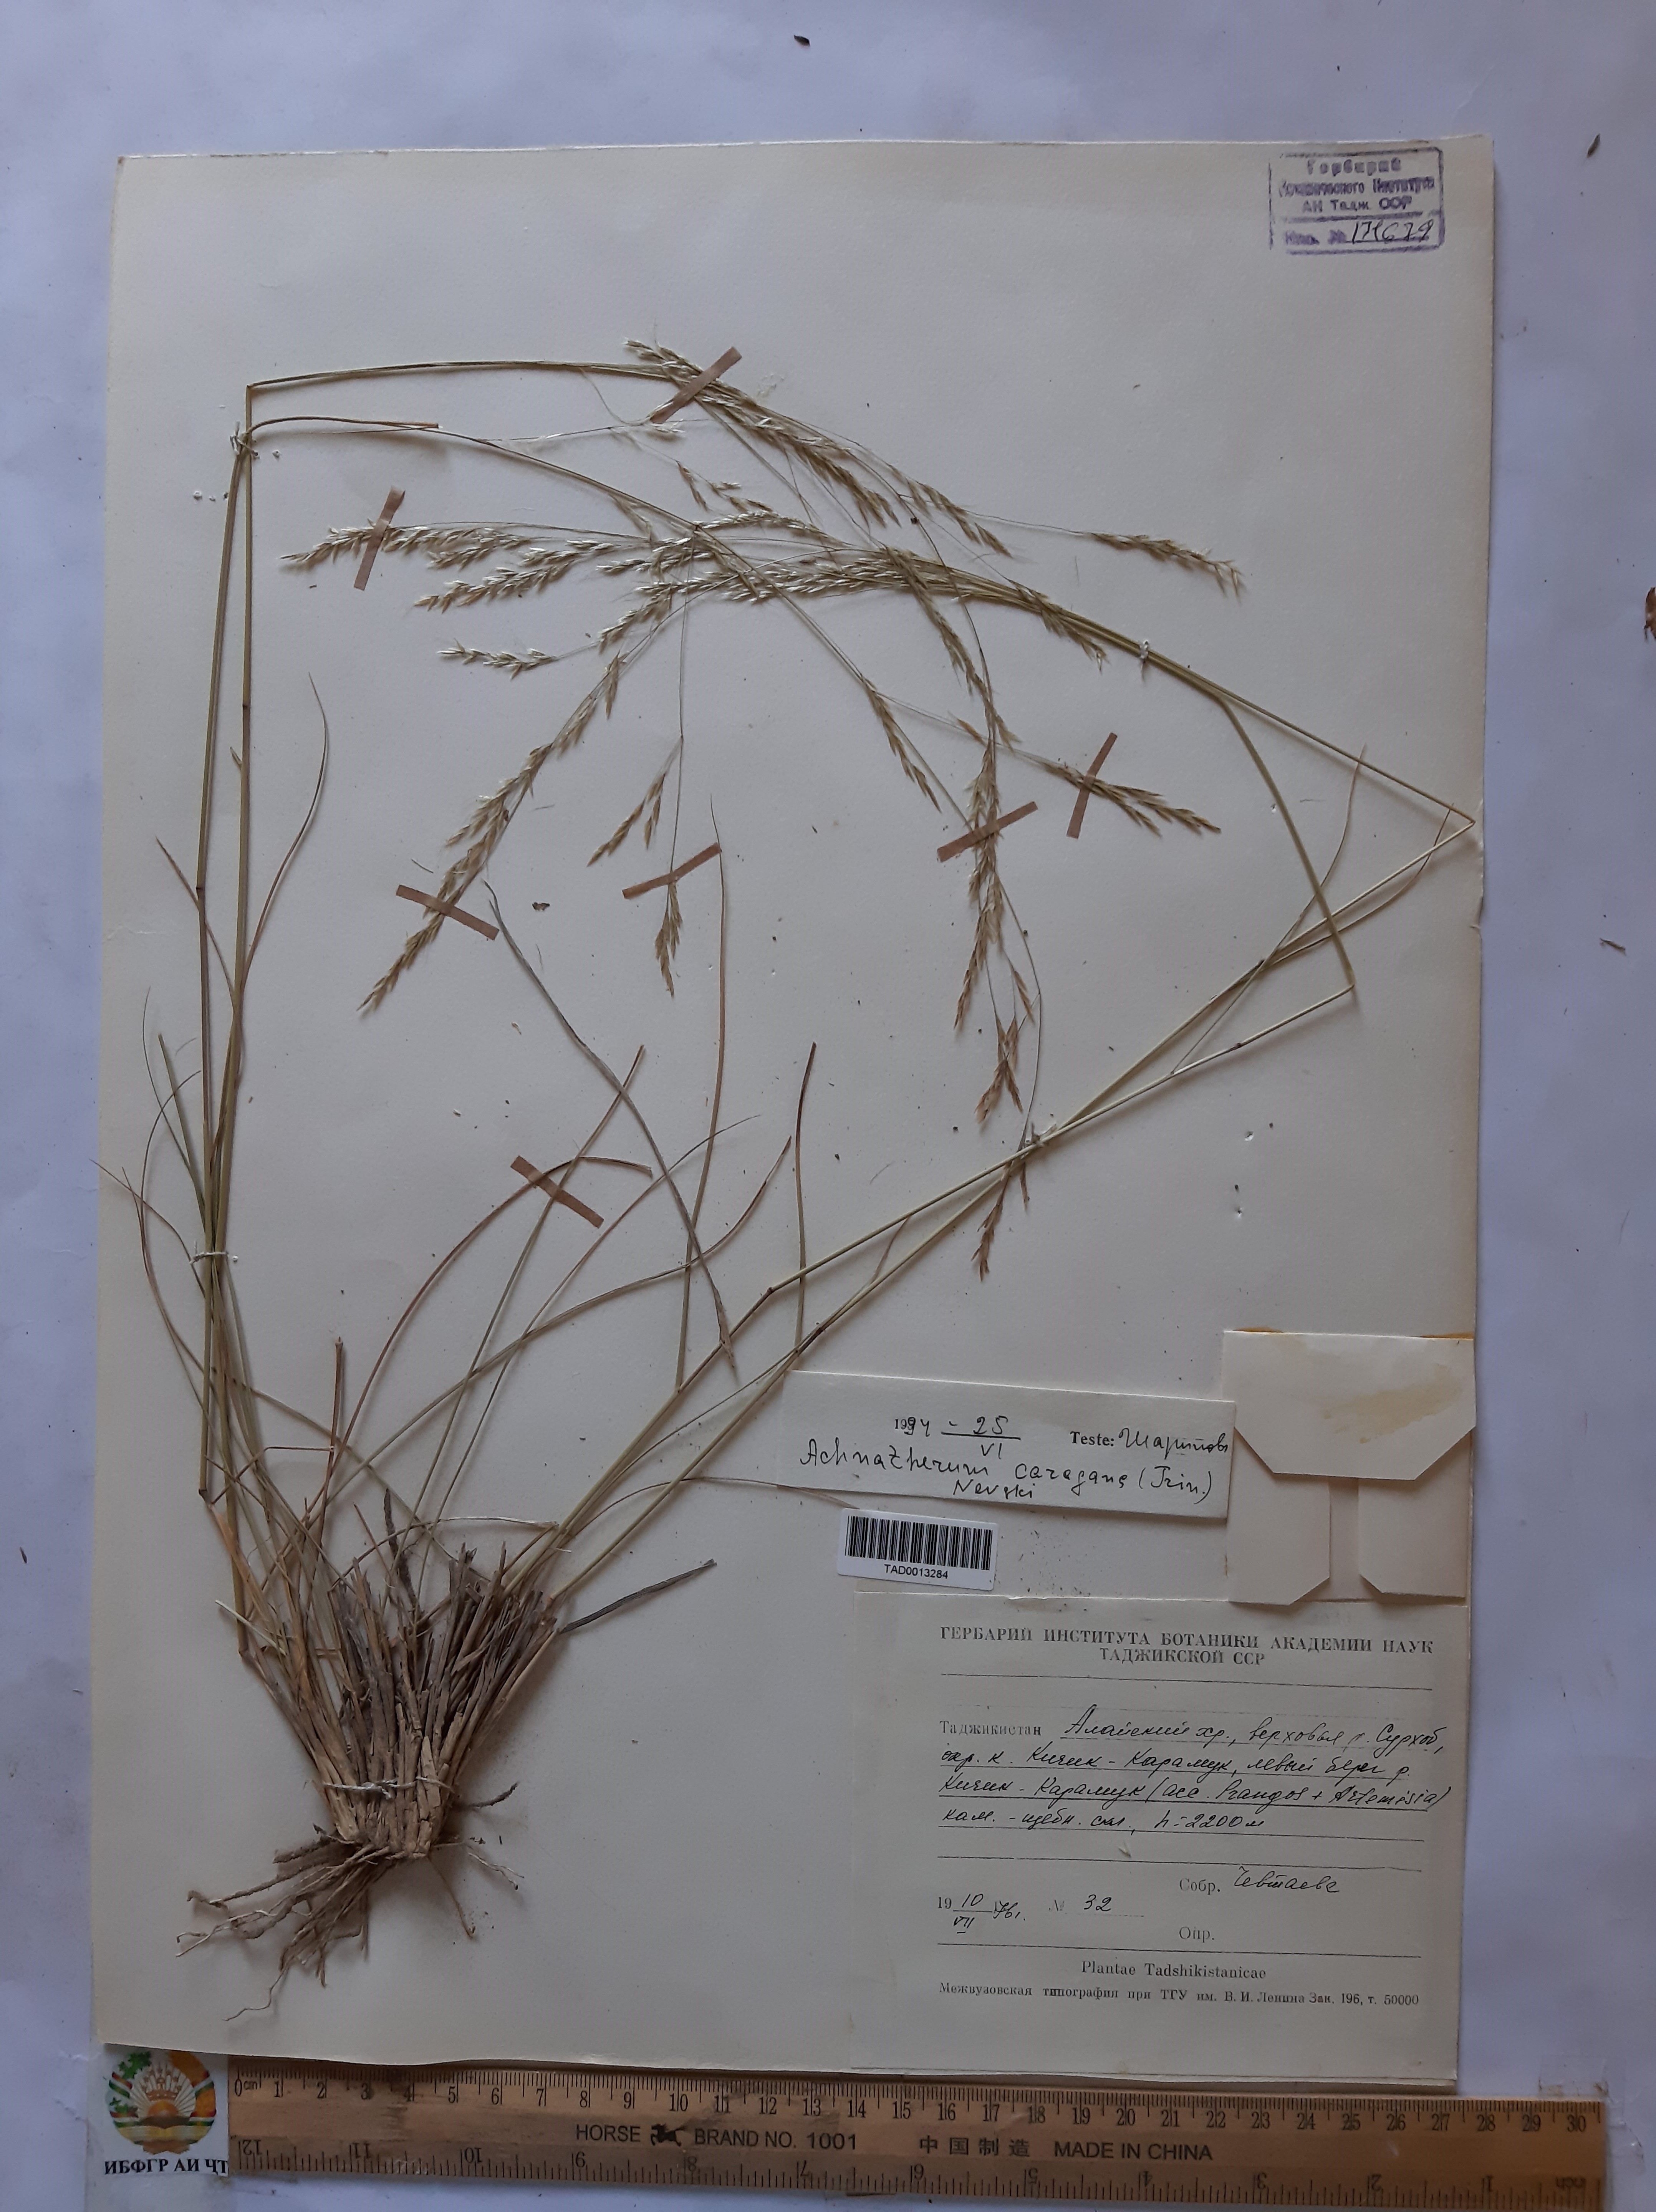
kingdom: Plantae
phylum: Tracheophyta
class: Liliopsida
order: Poales
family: Poaceae
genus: Stipa
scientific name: Stipa conferta
